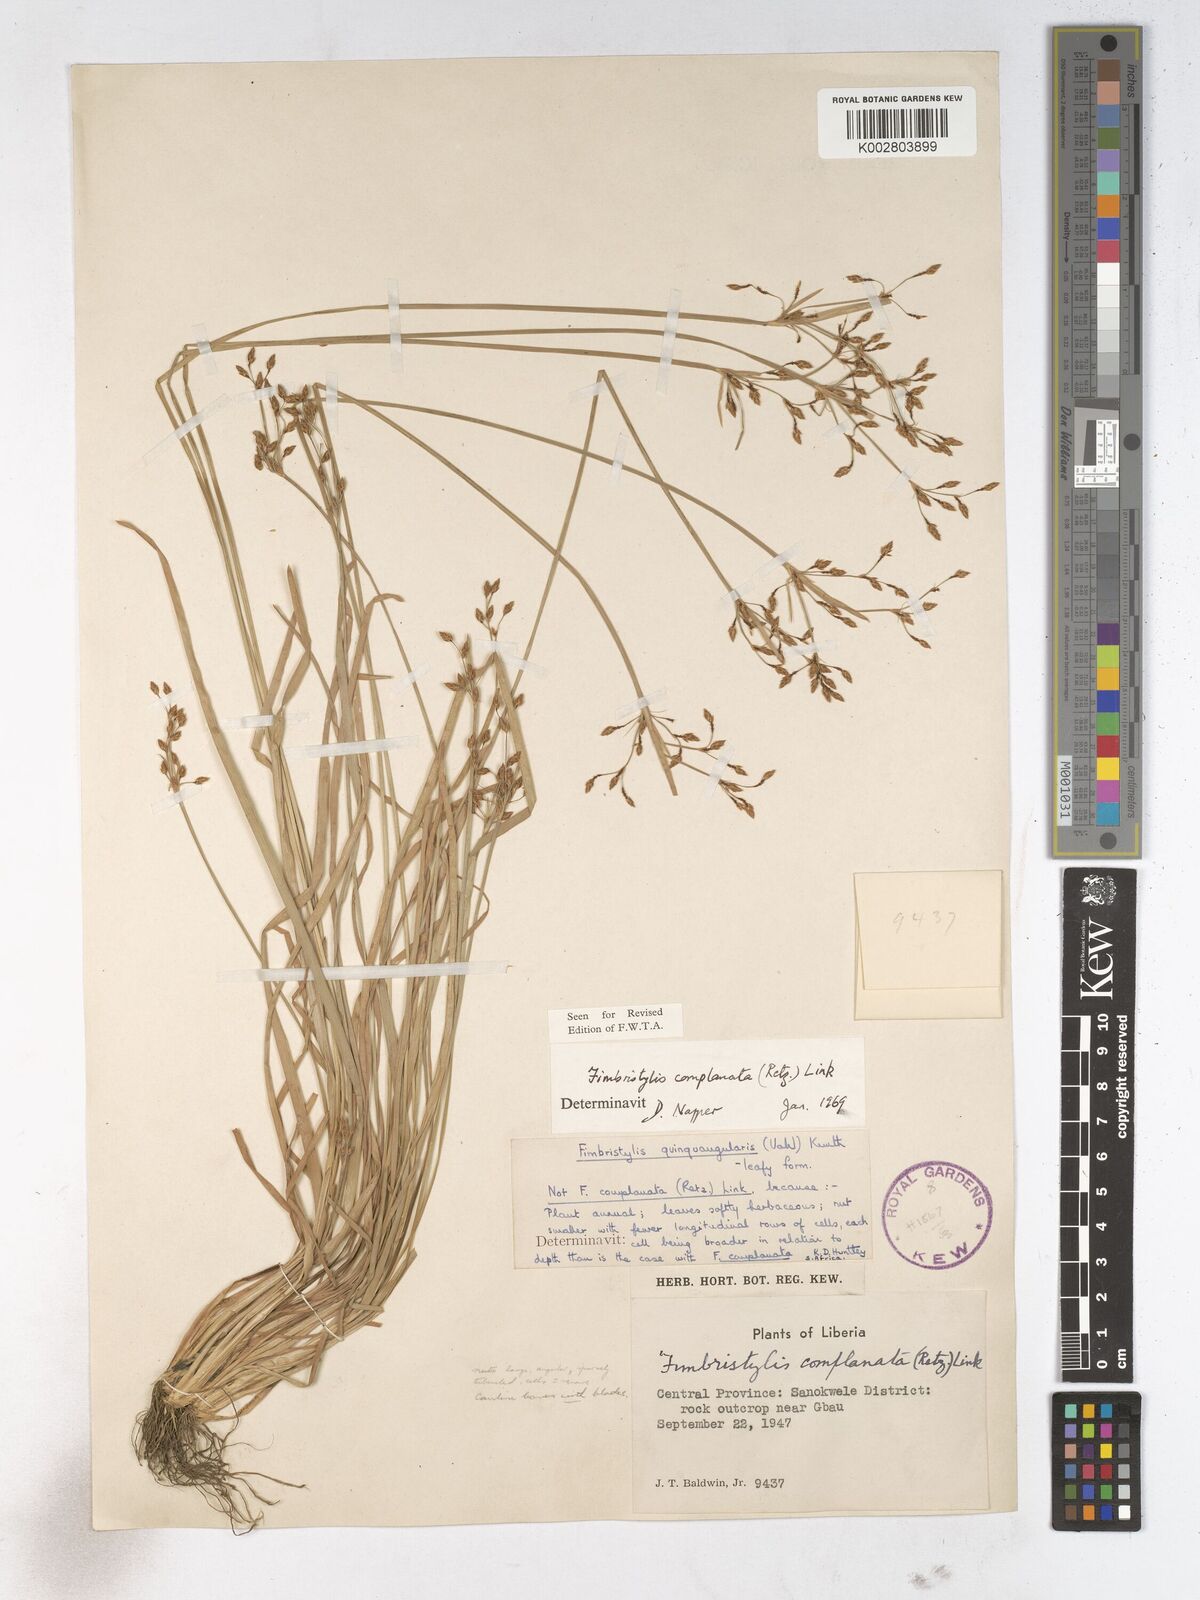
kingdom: Plantae
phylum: Tracheophyta
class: Liliopsida
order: Poales
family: Cyperaceae
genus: Fimbristylis
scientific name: Fimbristylis complanata
